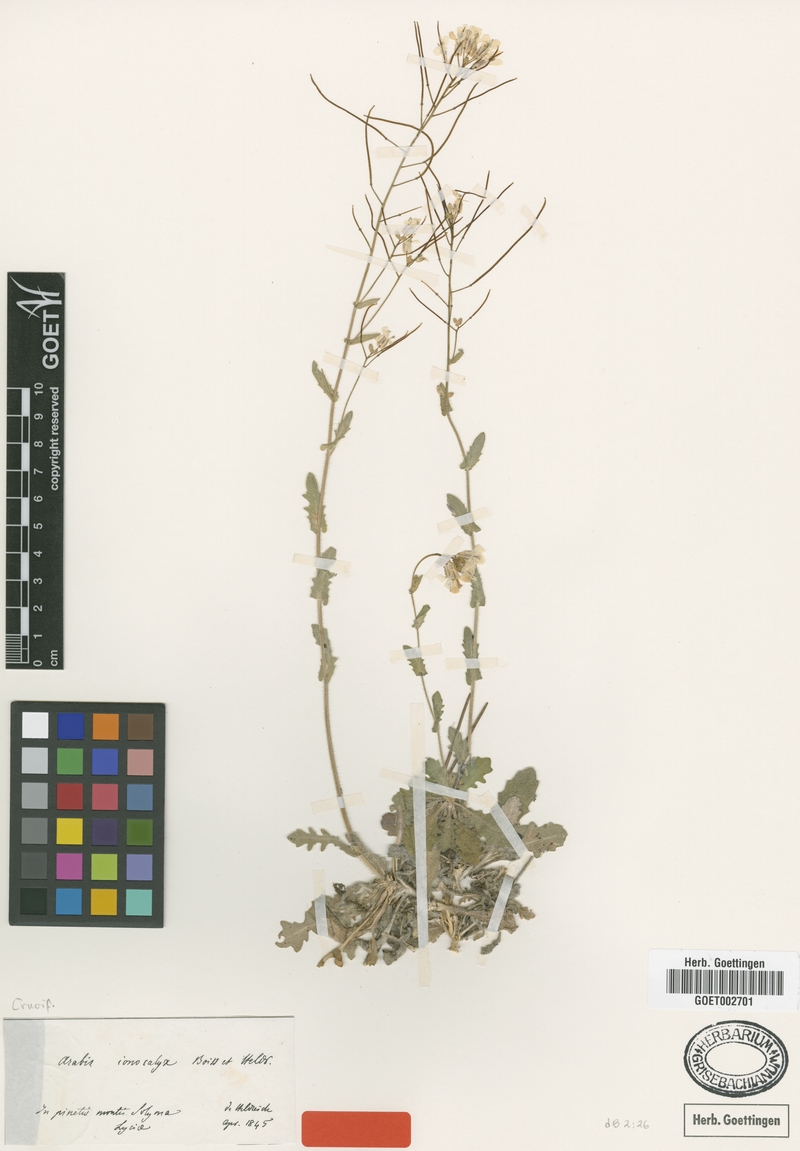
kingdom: Plantae
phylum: Tracheophyta
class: Magnoliopsida
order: Brassicales
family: Brassicaceae
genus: Arabis
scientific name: Arabis ionocalyx
